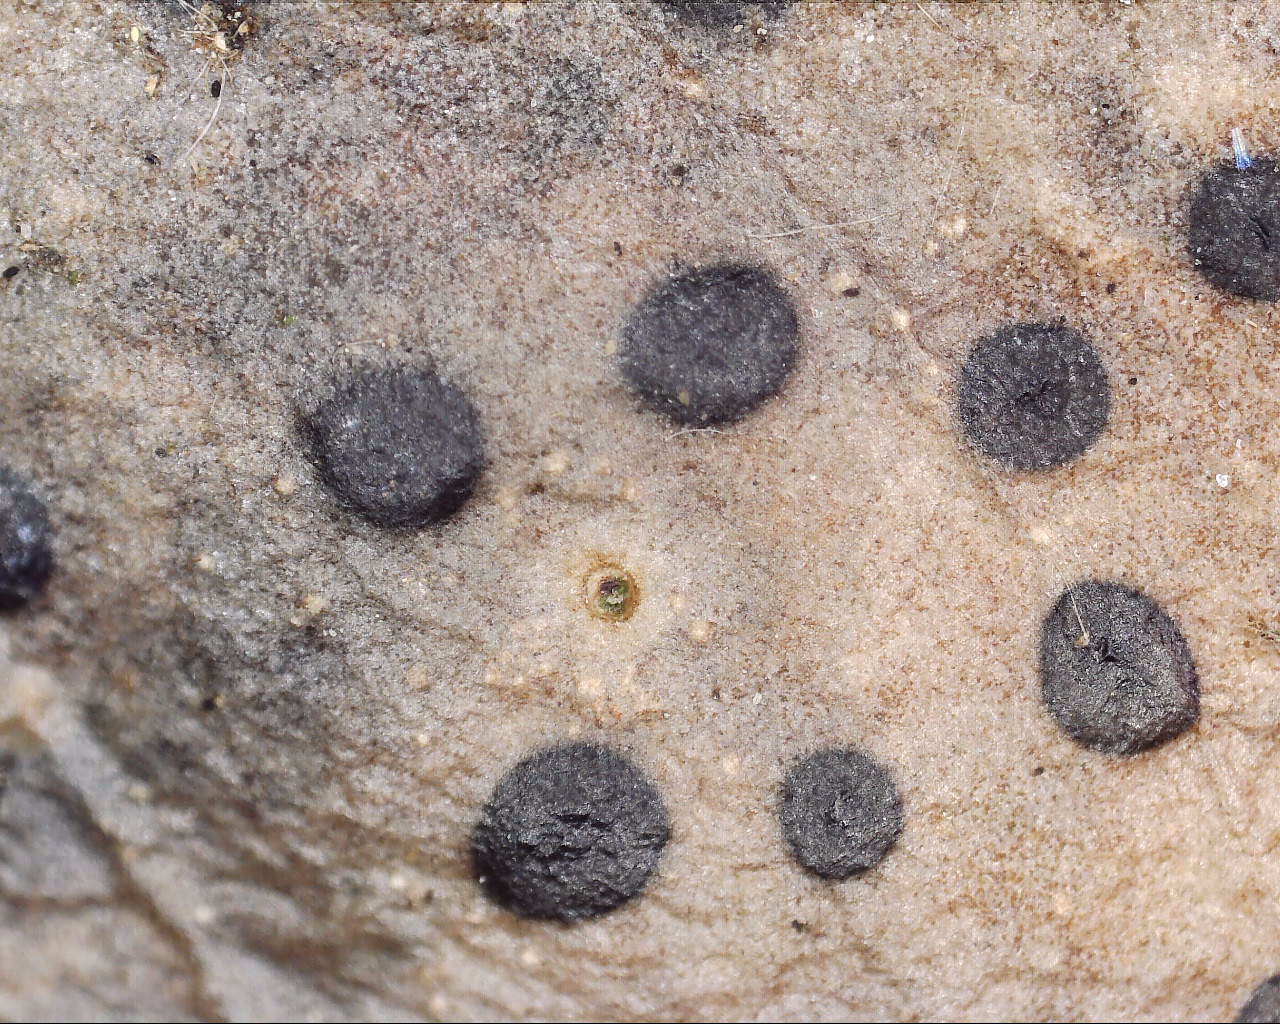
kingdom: Fungi
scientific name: Fungi
